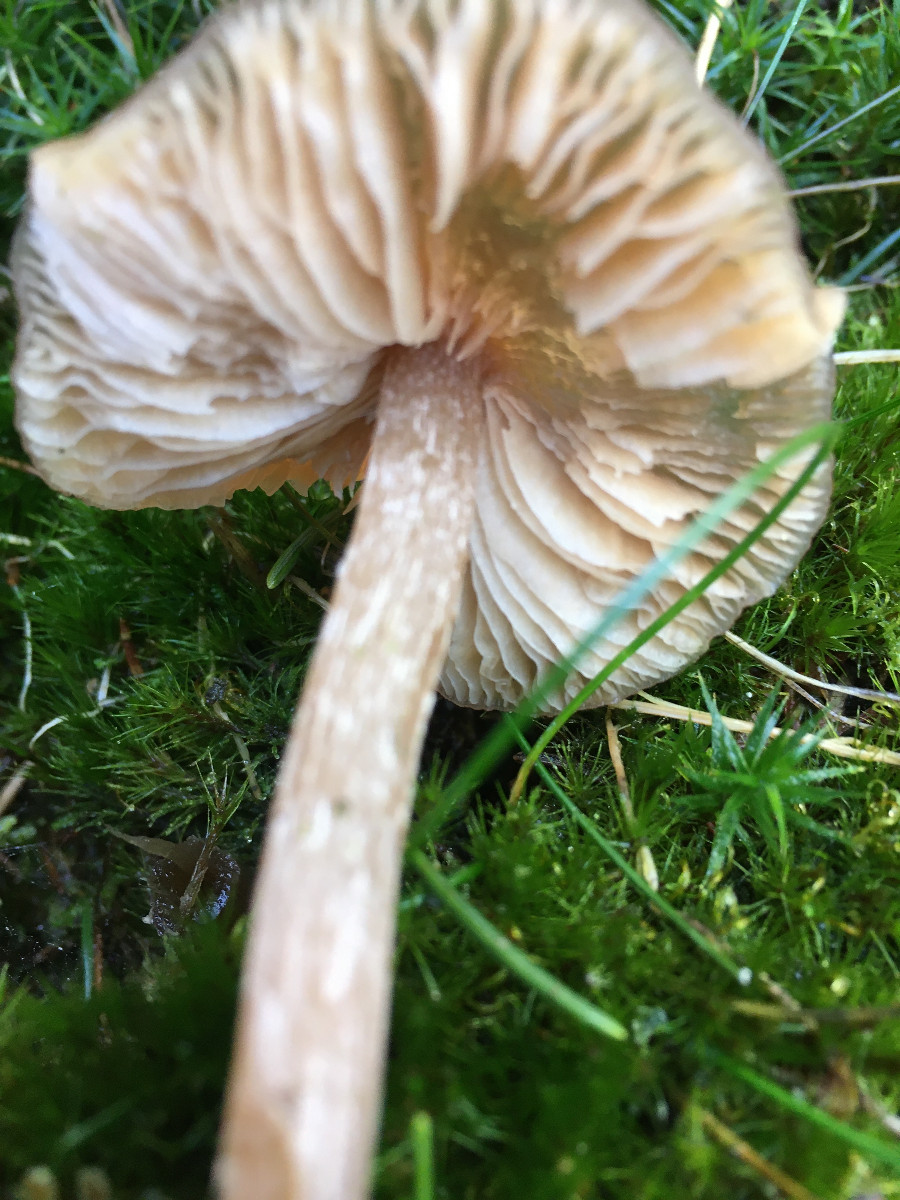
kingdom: Fungi
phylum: Basidiomycota
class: Agaricomycetes
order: Agaricales
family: Entolomataceae
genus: Entoloma
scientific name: Entoloma cetratum
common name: voks-rødblad
